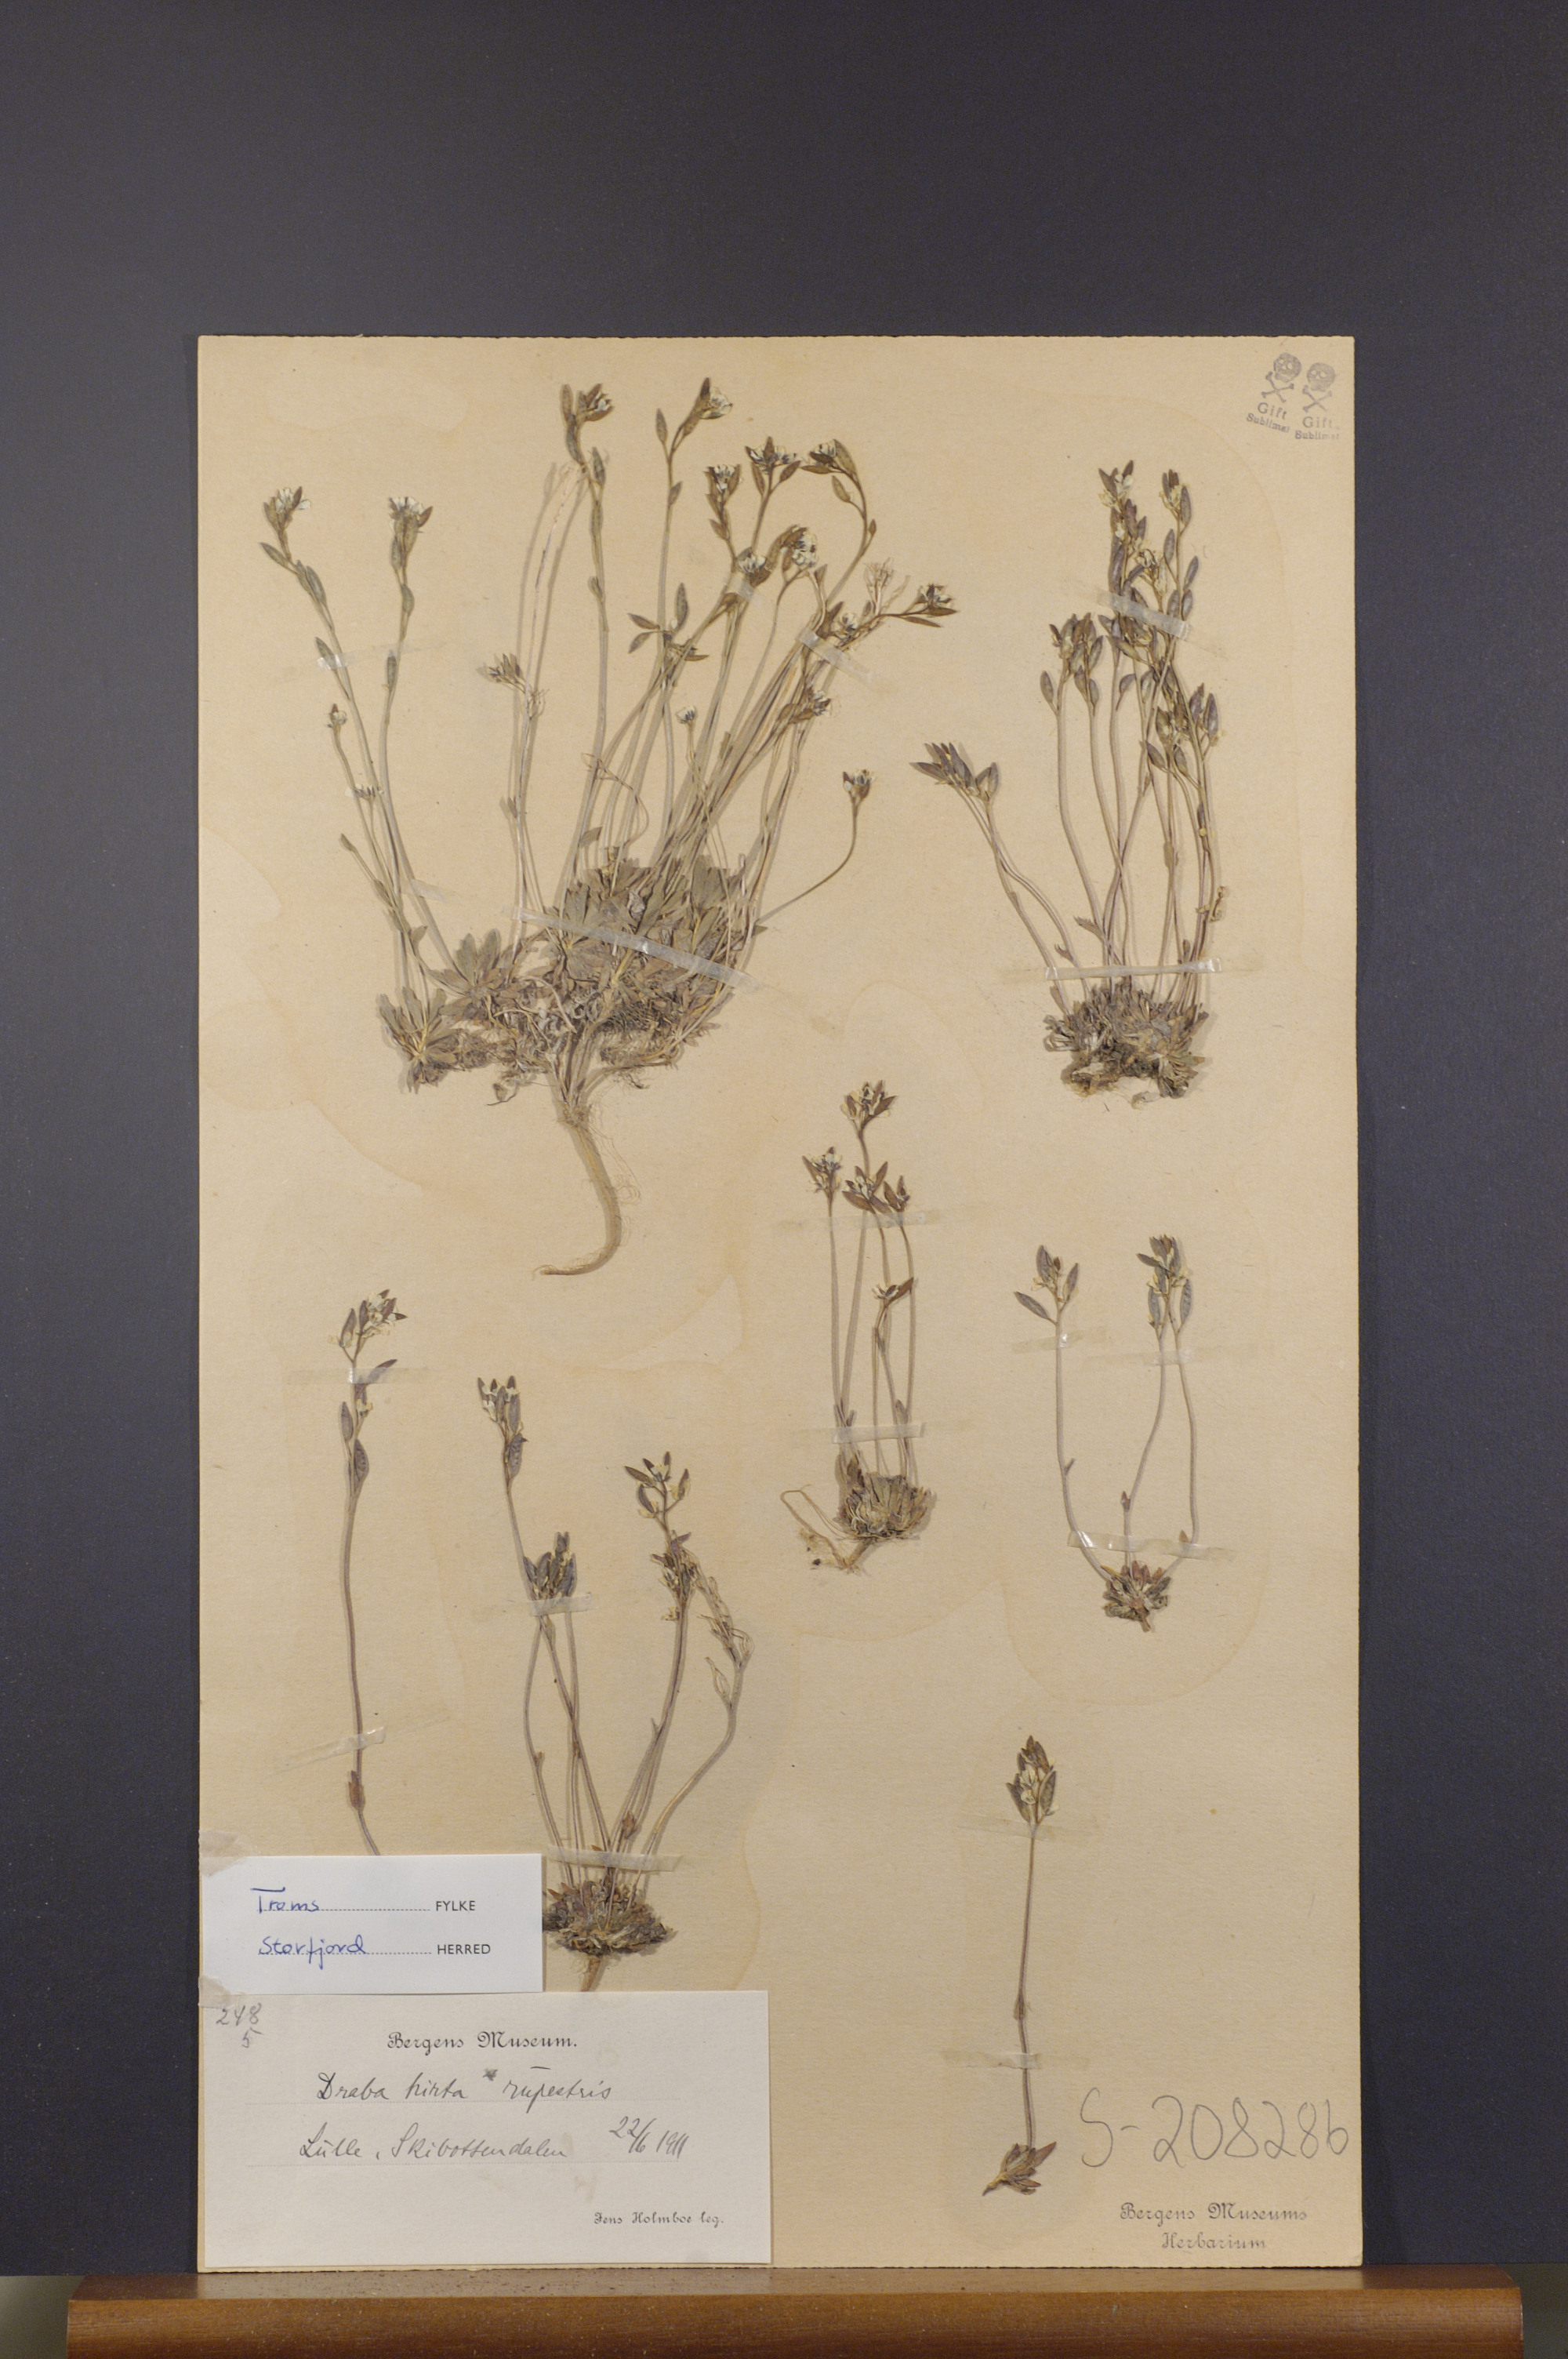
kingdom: Plantae
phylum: Tracheophyta
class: Magnoliopsida
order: Brassicales
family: Brassicaceae
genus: Draba
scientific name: Draba norvegica
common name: Rock whitlowgrass
